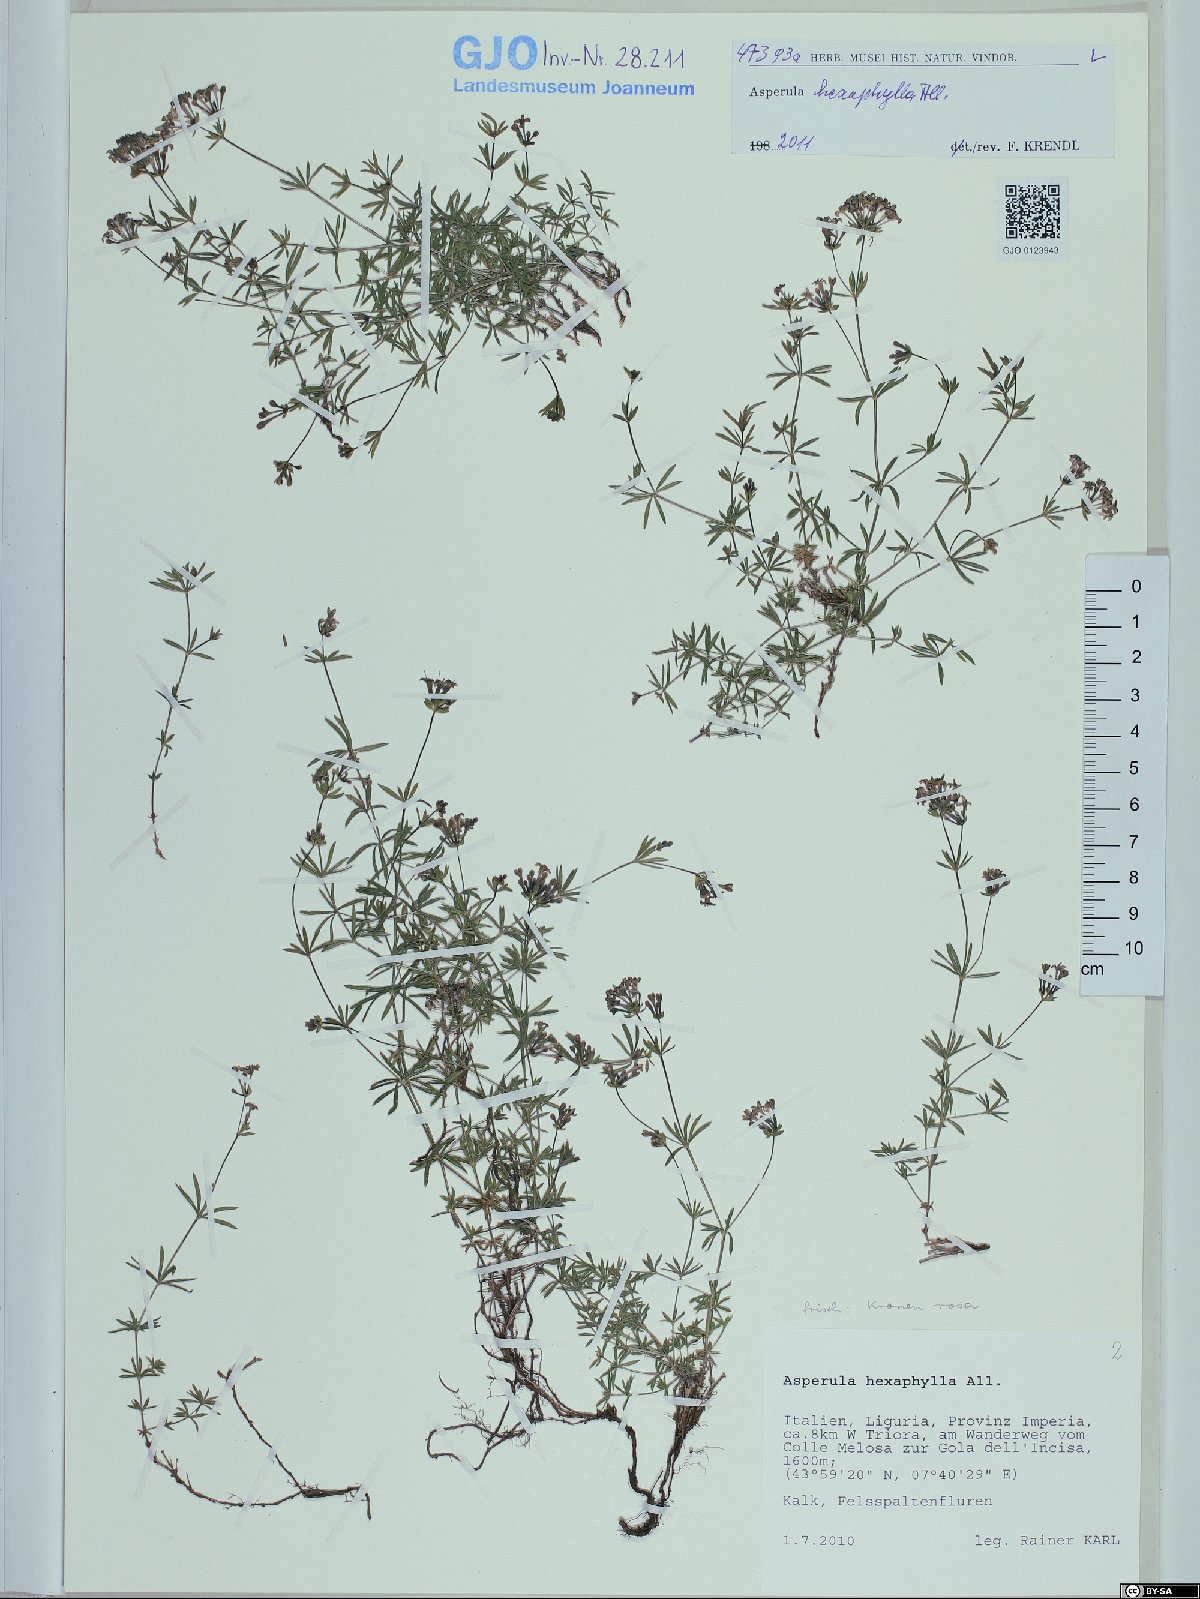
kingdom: Plantae
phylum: Tracheophyta
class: Magnoliopsida
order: Gentianales
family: Rubiaceae
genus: Hexaphylla
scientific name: Hexaphylla allionii
